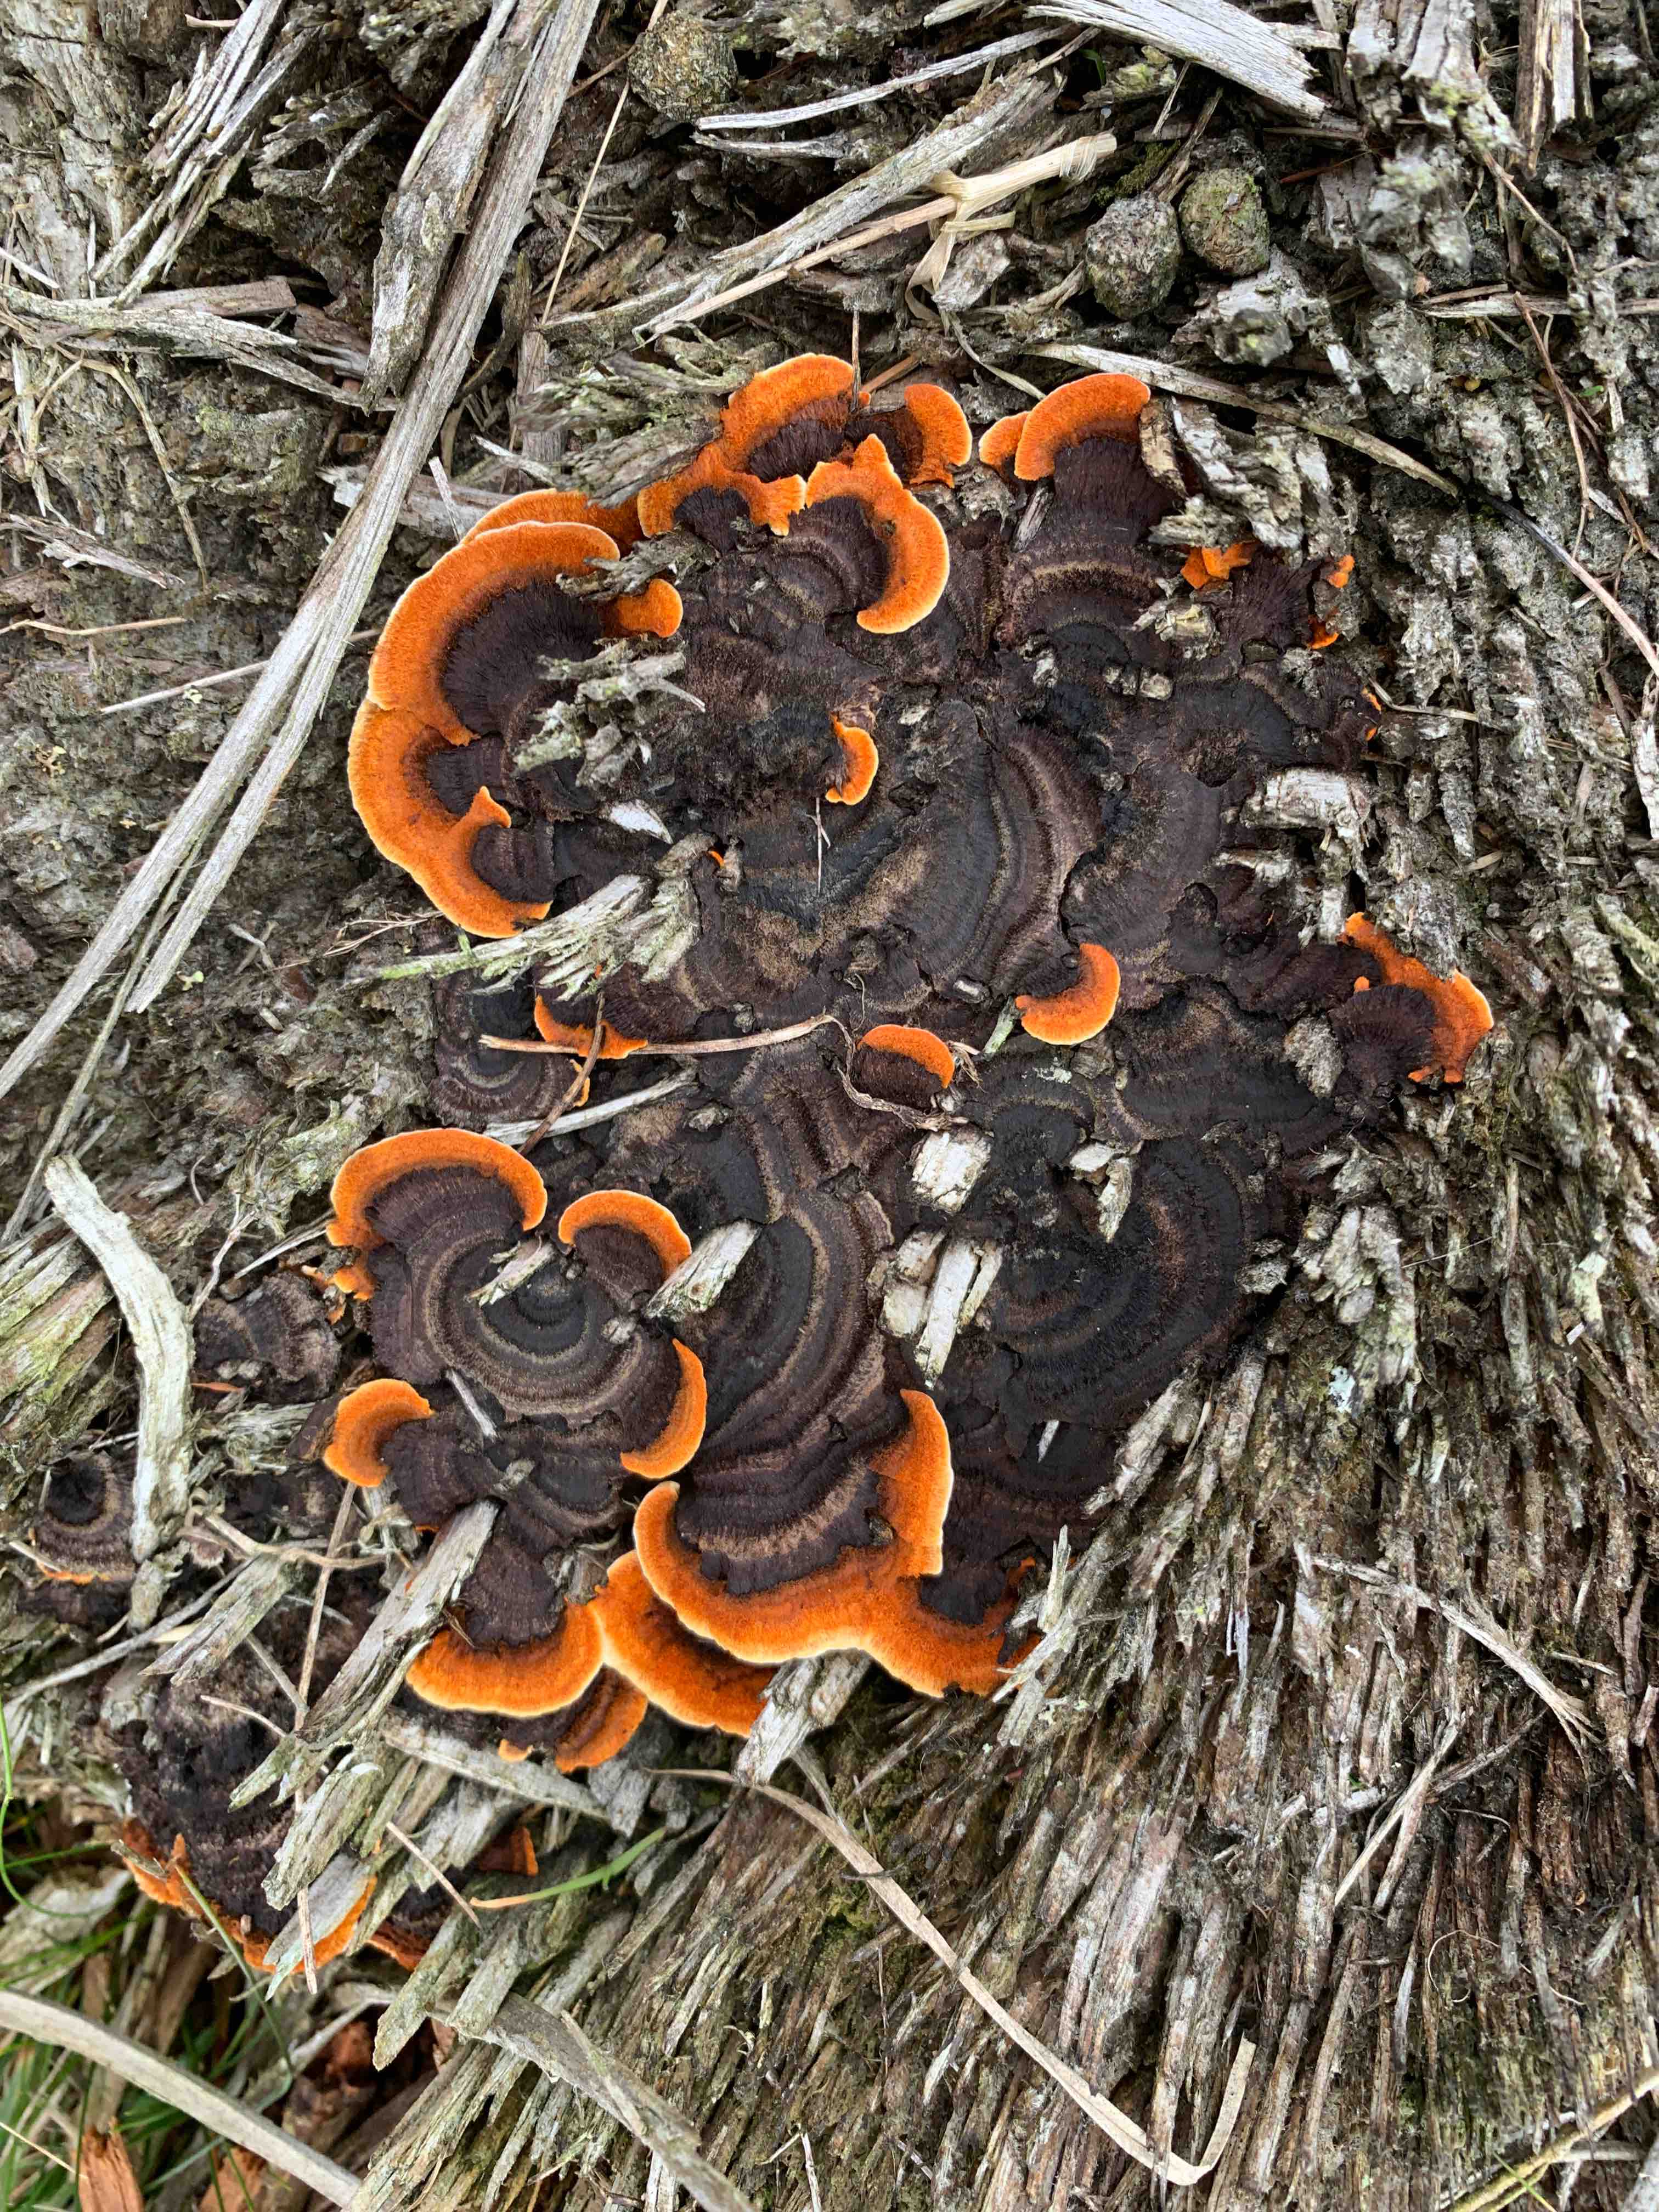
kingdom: Fungi
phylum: Basidiomycota
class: Agaricomycetes
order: Gloeophyllales
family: Gloeophyllaceae
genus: Gloeophyllum
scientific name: Gloeophyllum sepiarium
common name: fyrre-korkhat
